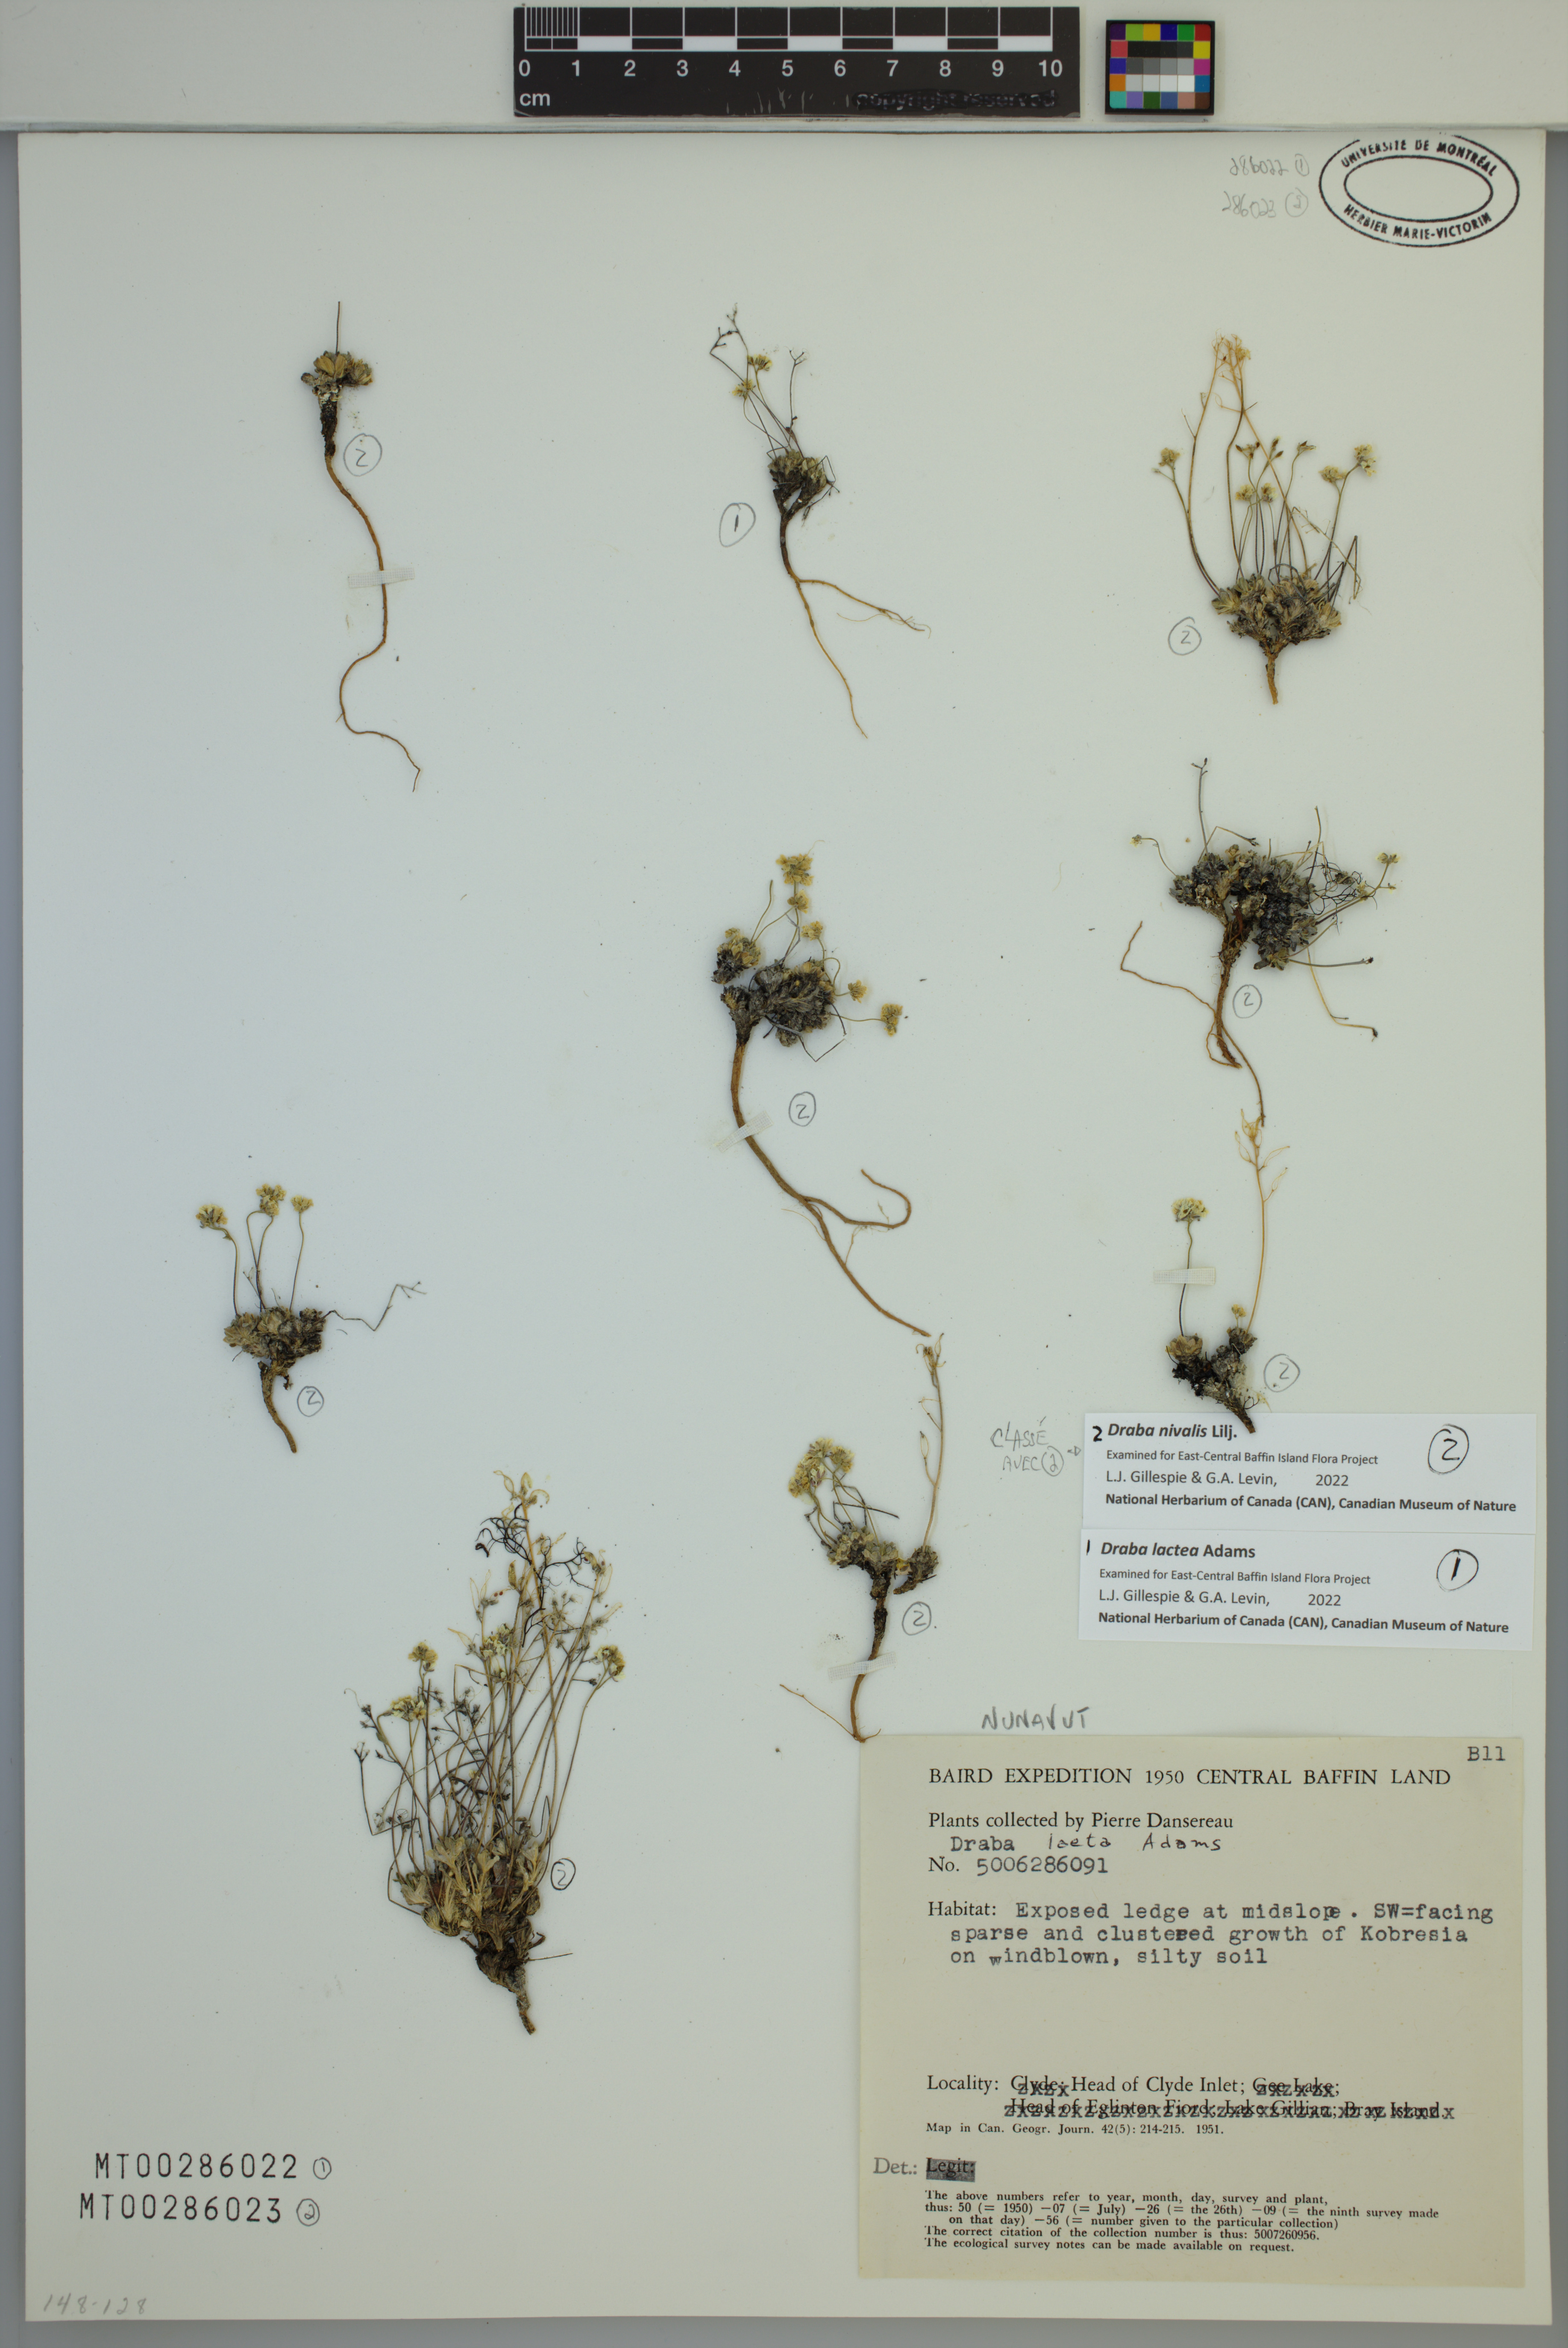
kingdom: Plantae
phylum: Tracheophyta
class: Magnoliopsida
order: Brassicales
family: Brassicaceae
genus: Draba
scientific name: Draba nivalis
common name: Snow draba
